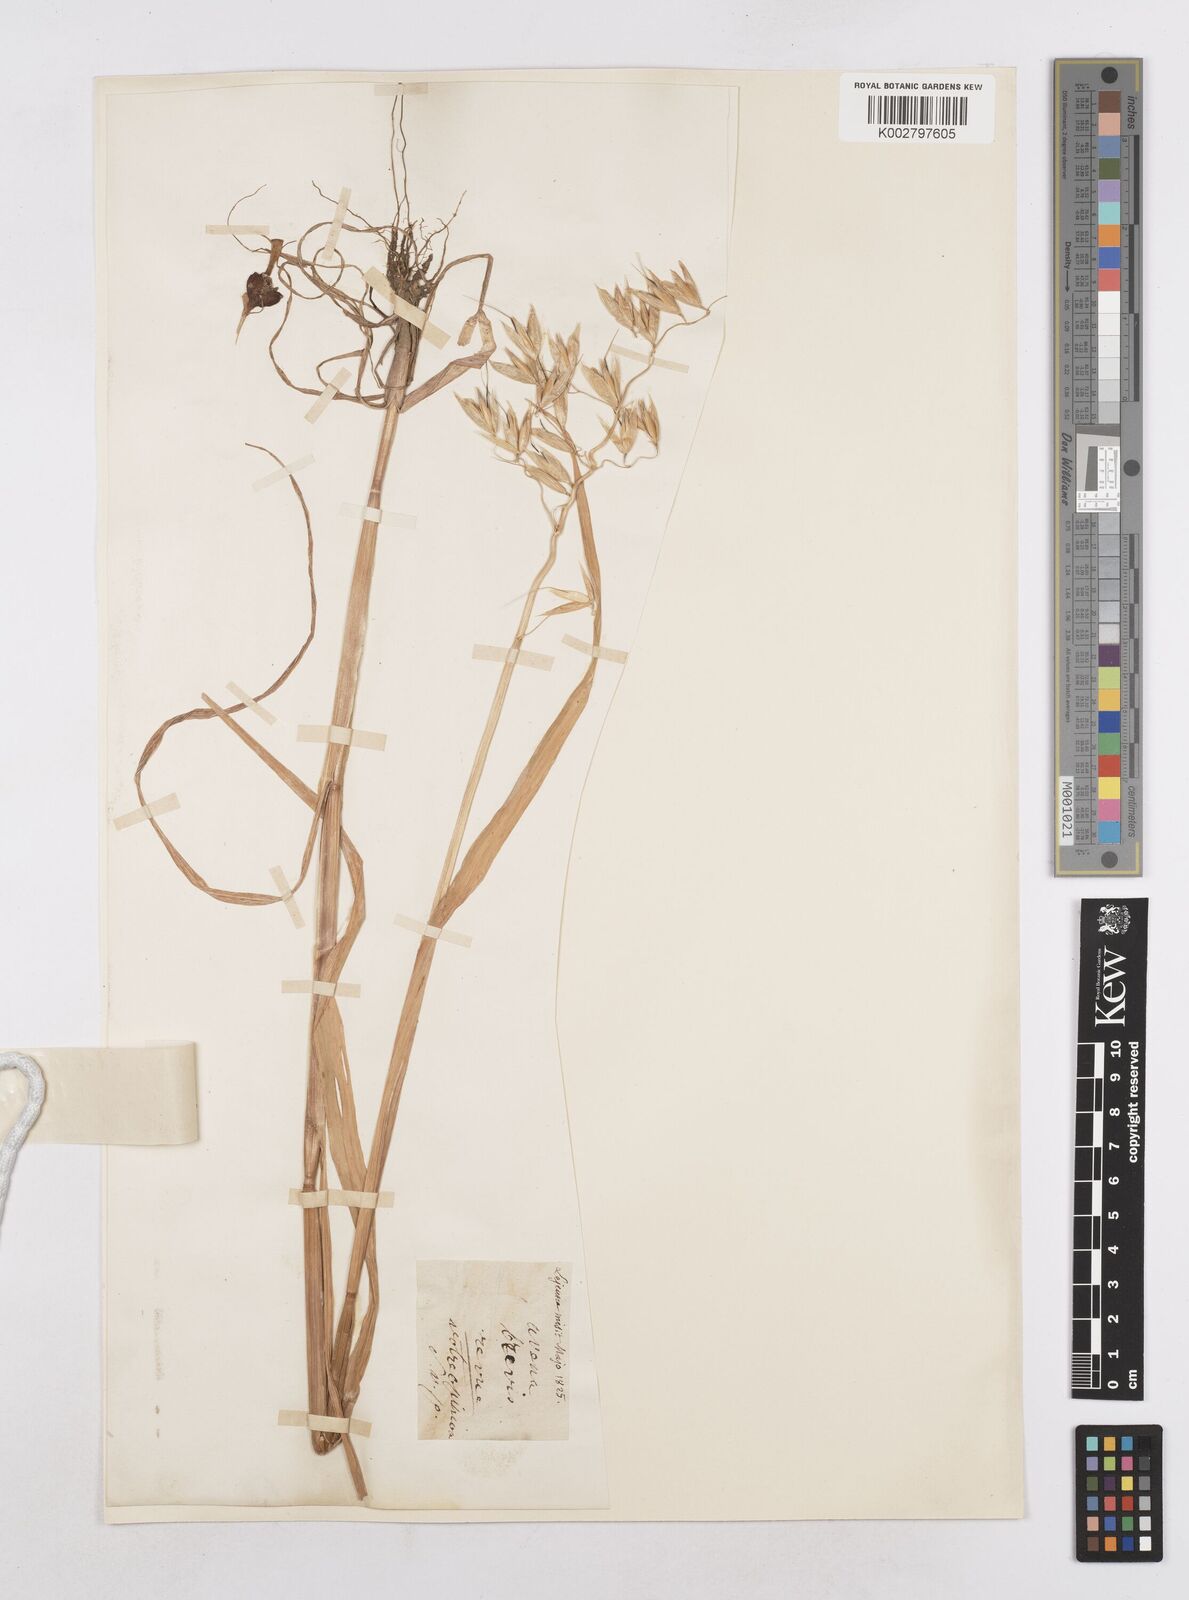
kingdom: Plantae
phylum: Tracheophyta
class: Liliopsida
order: Poales
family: Poaceae
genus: Avena
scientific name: Avena sativa
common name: Oat
